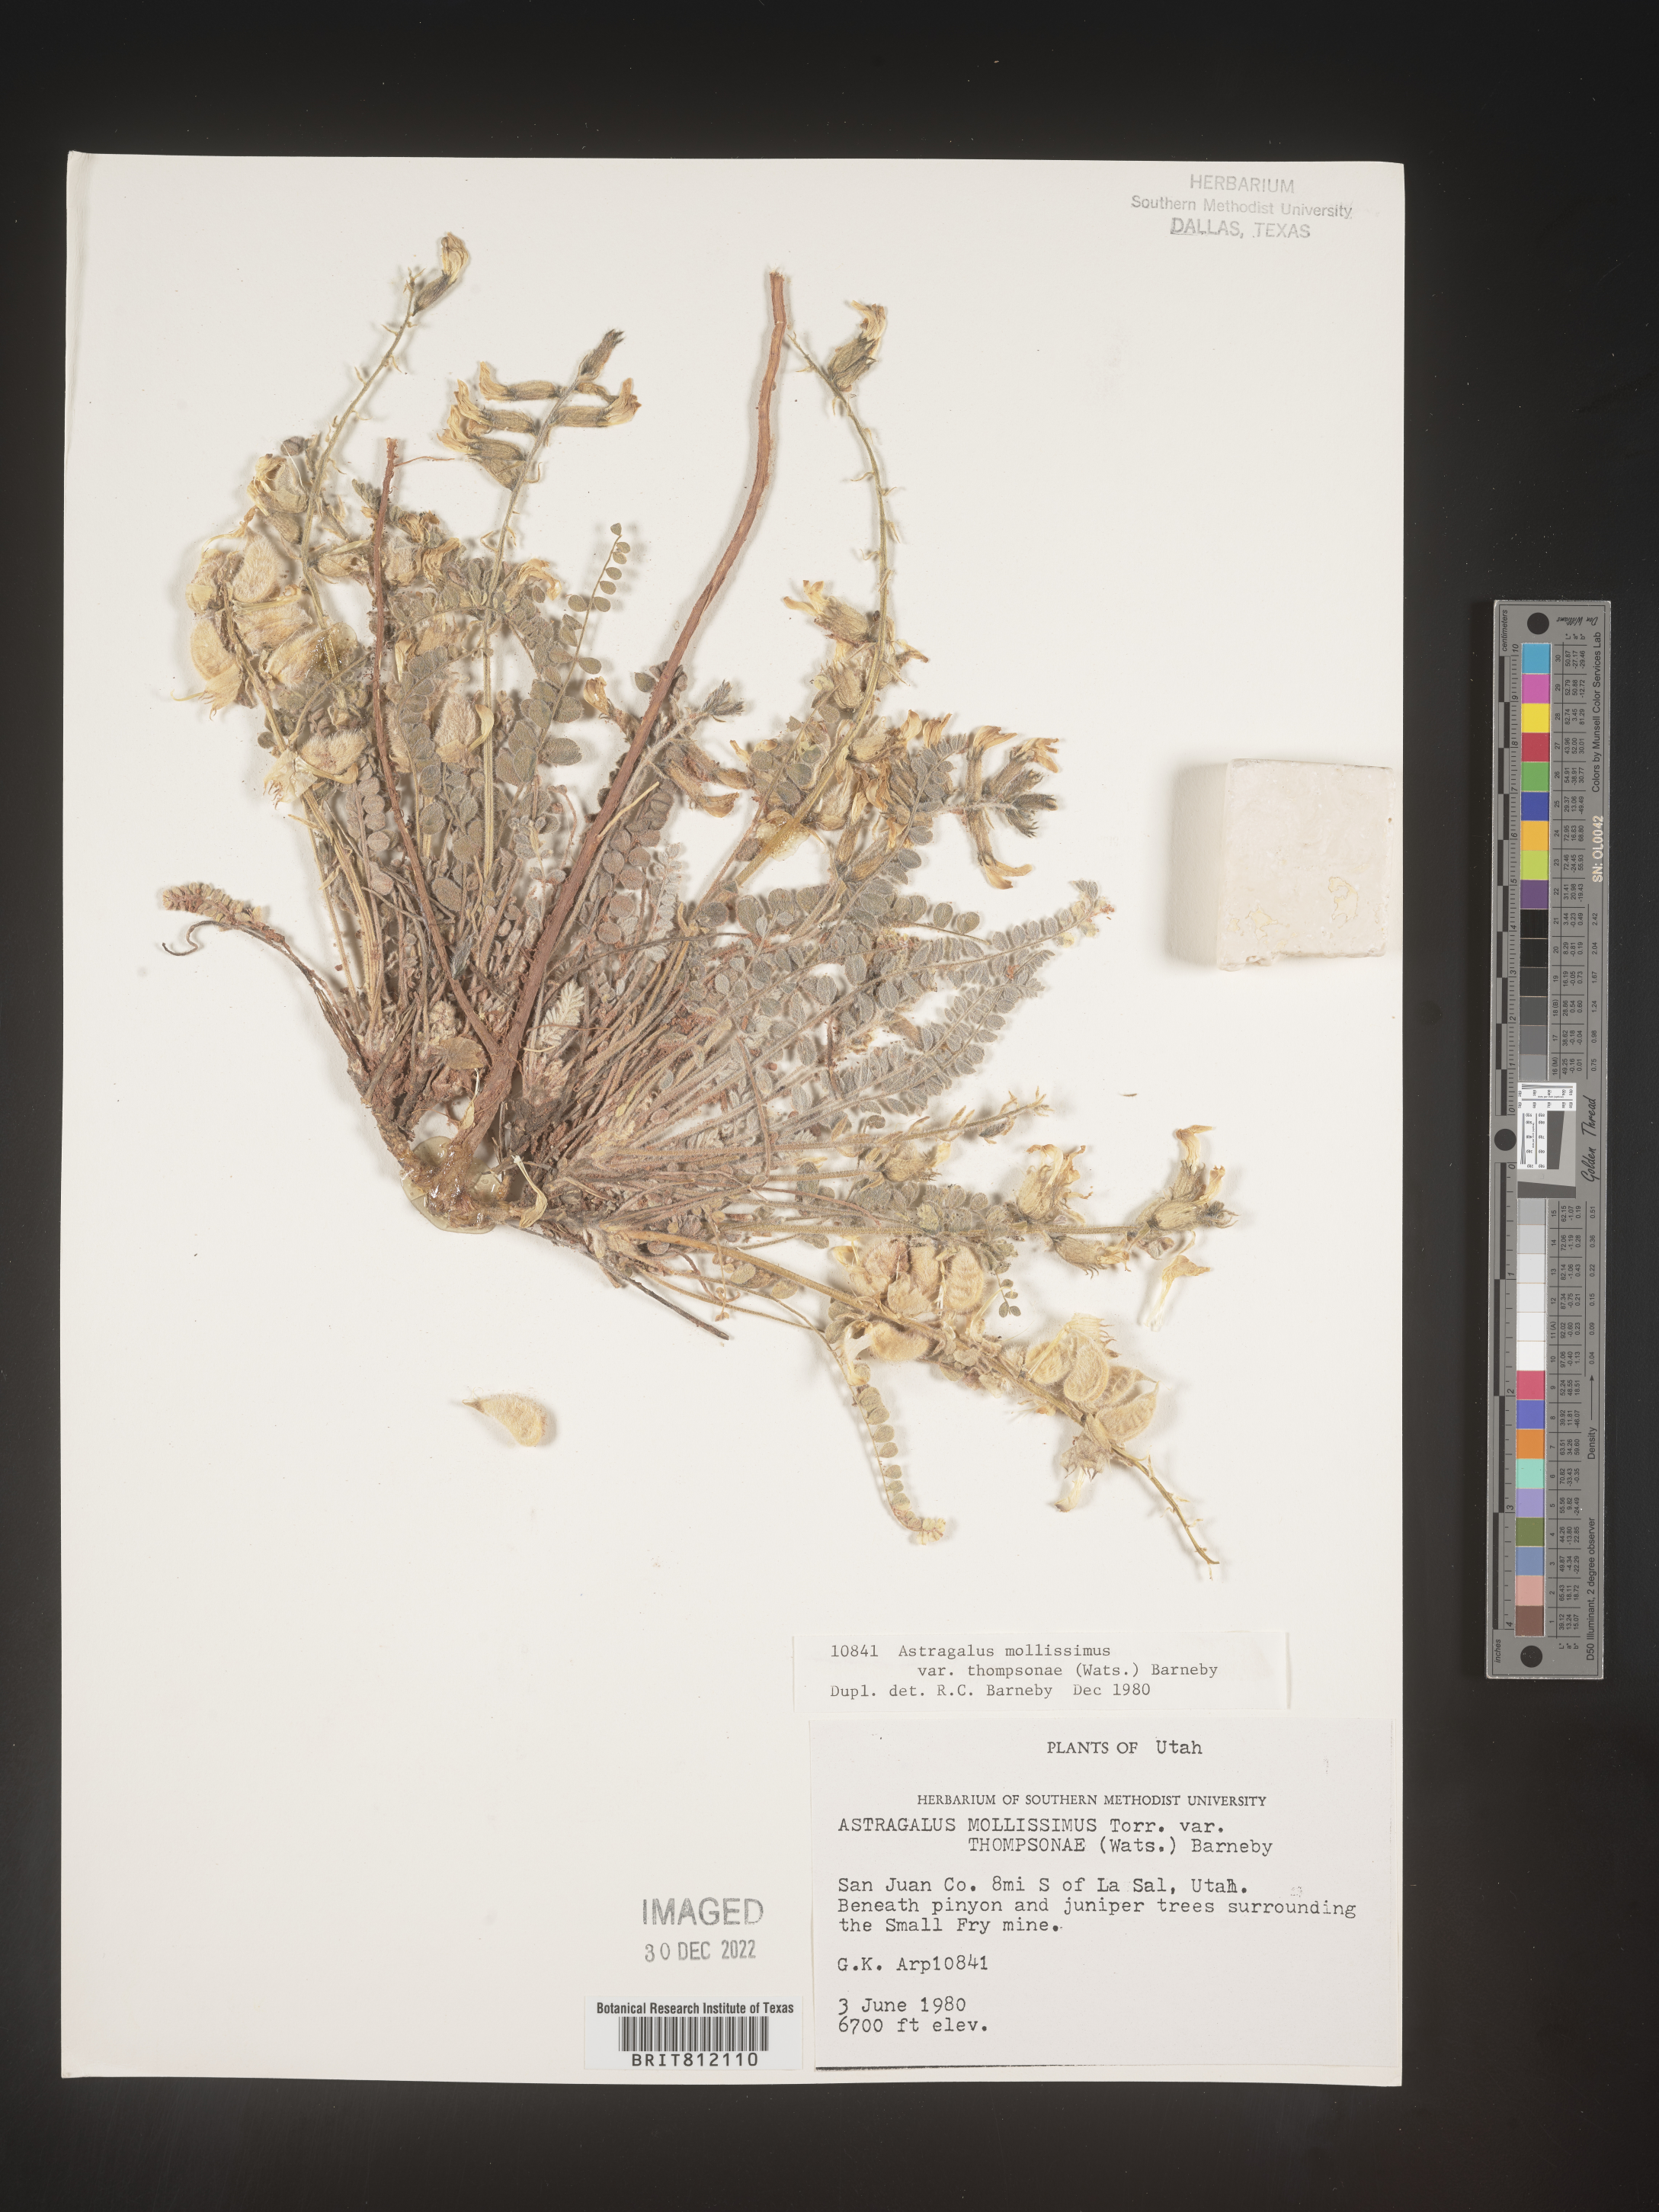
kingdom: Plantae
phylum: Tracheophyta
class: Magnoliopsida
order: Fabales
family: Fabaceae
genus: Astragalus
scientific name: Astragalus mollissimus
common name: Woolly locoweed
